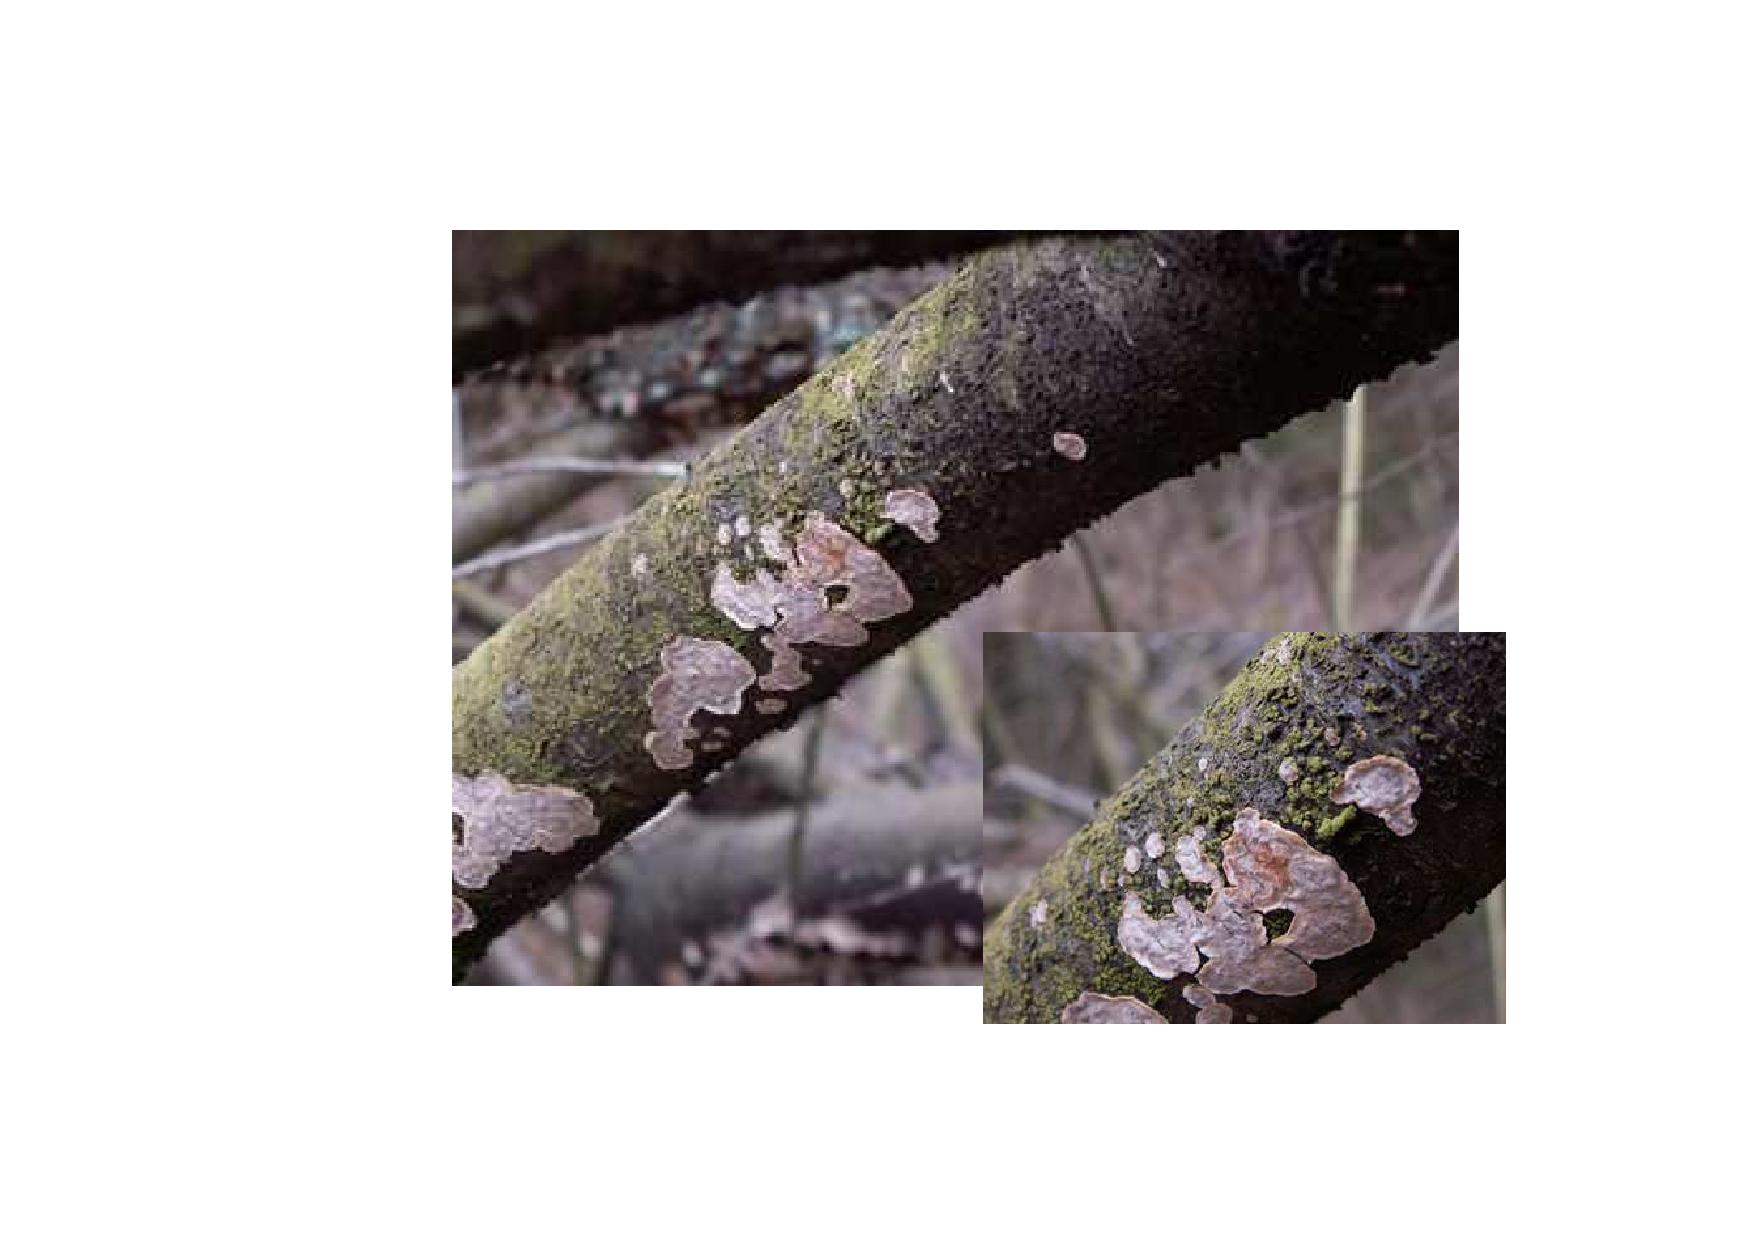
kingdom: Fungi
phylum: Basidiomycota
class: Agaricomycetes
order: Russulales
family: Stereaceae
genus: Stereum
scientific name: Stereum rugosum
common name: rynket lædersvamp
